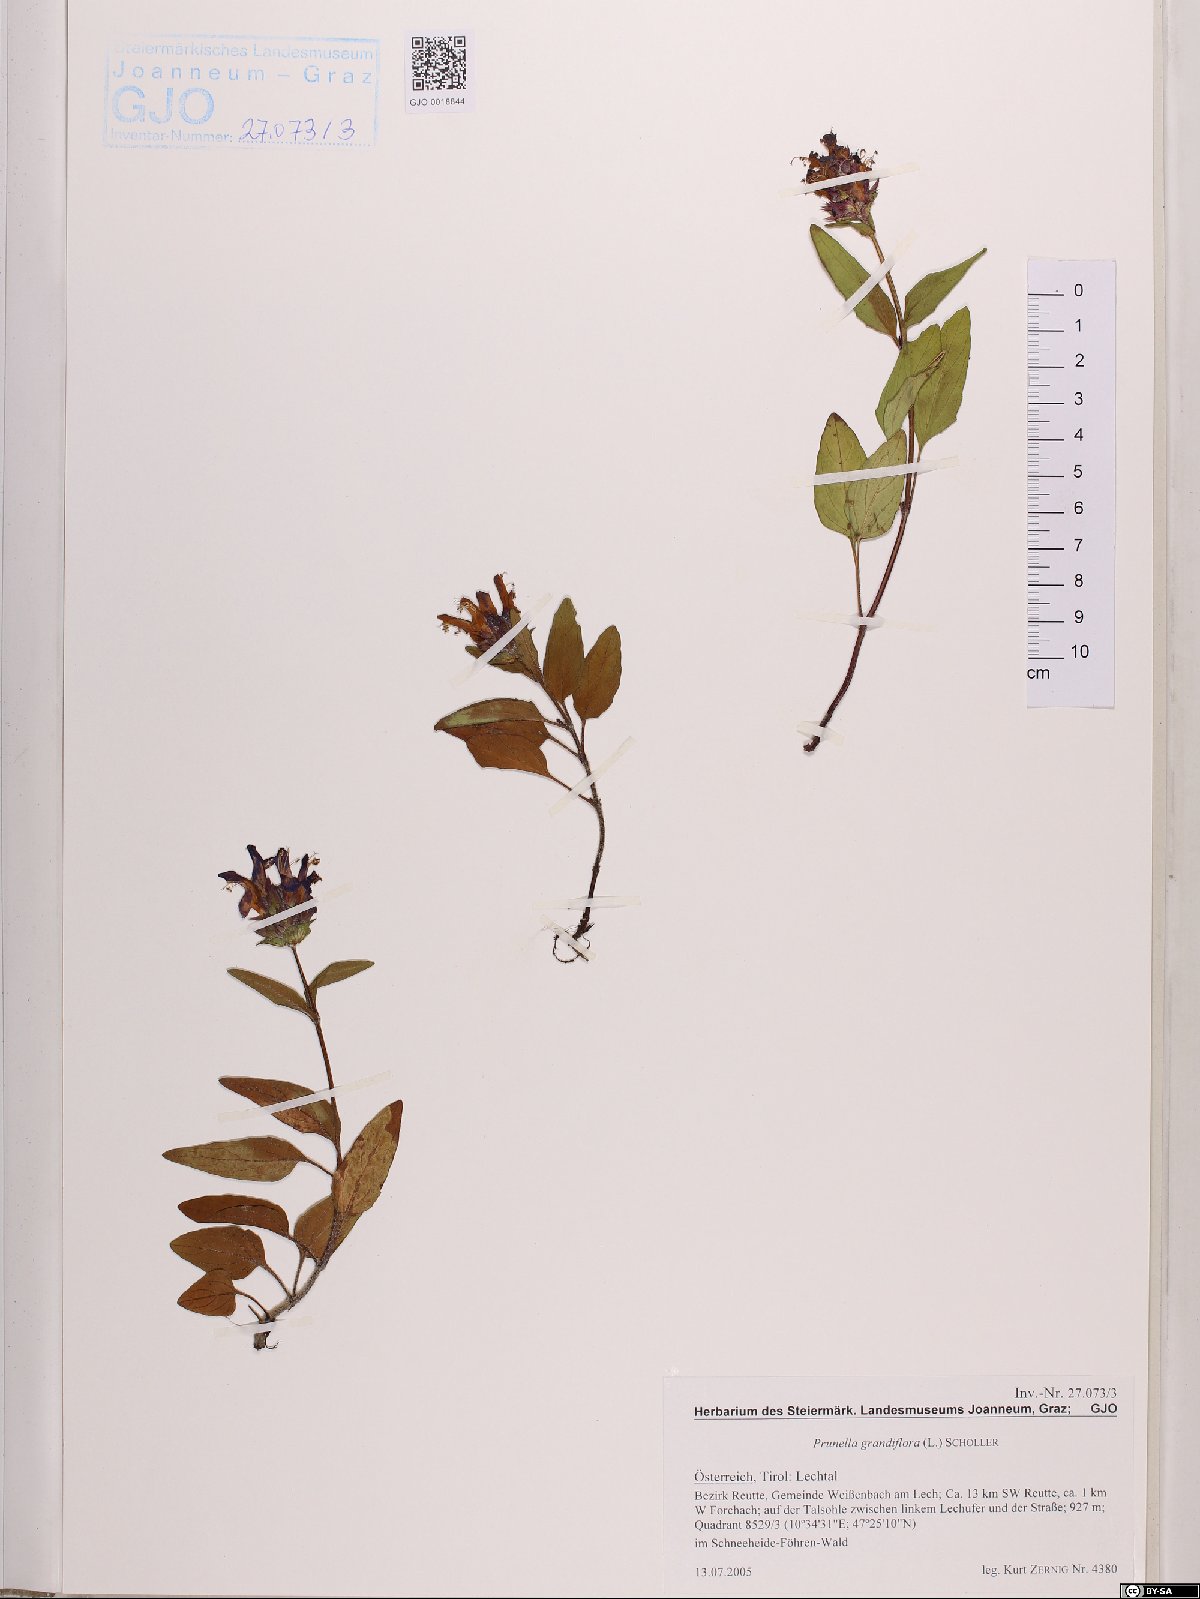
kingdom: Plantae
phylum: Tracheophyta
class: Magnoliopsida
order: Lamiales
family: Lamiaceae
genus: Prunella
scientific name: Prunella grandiflora
